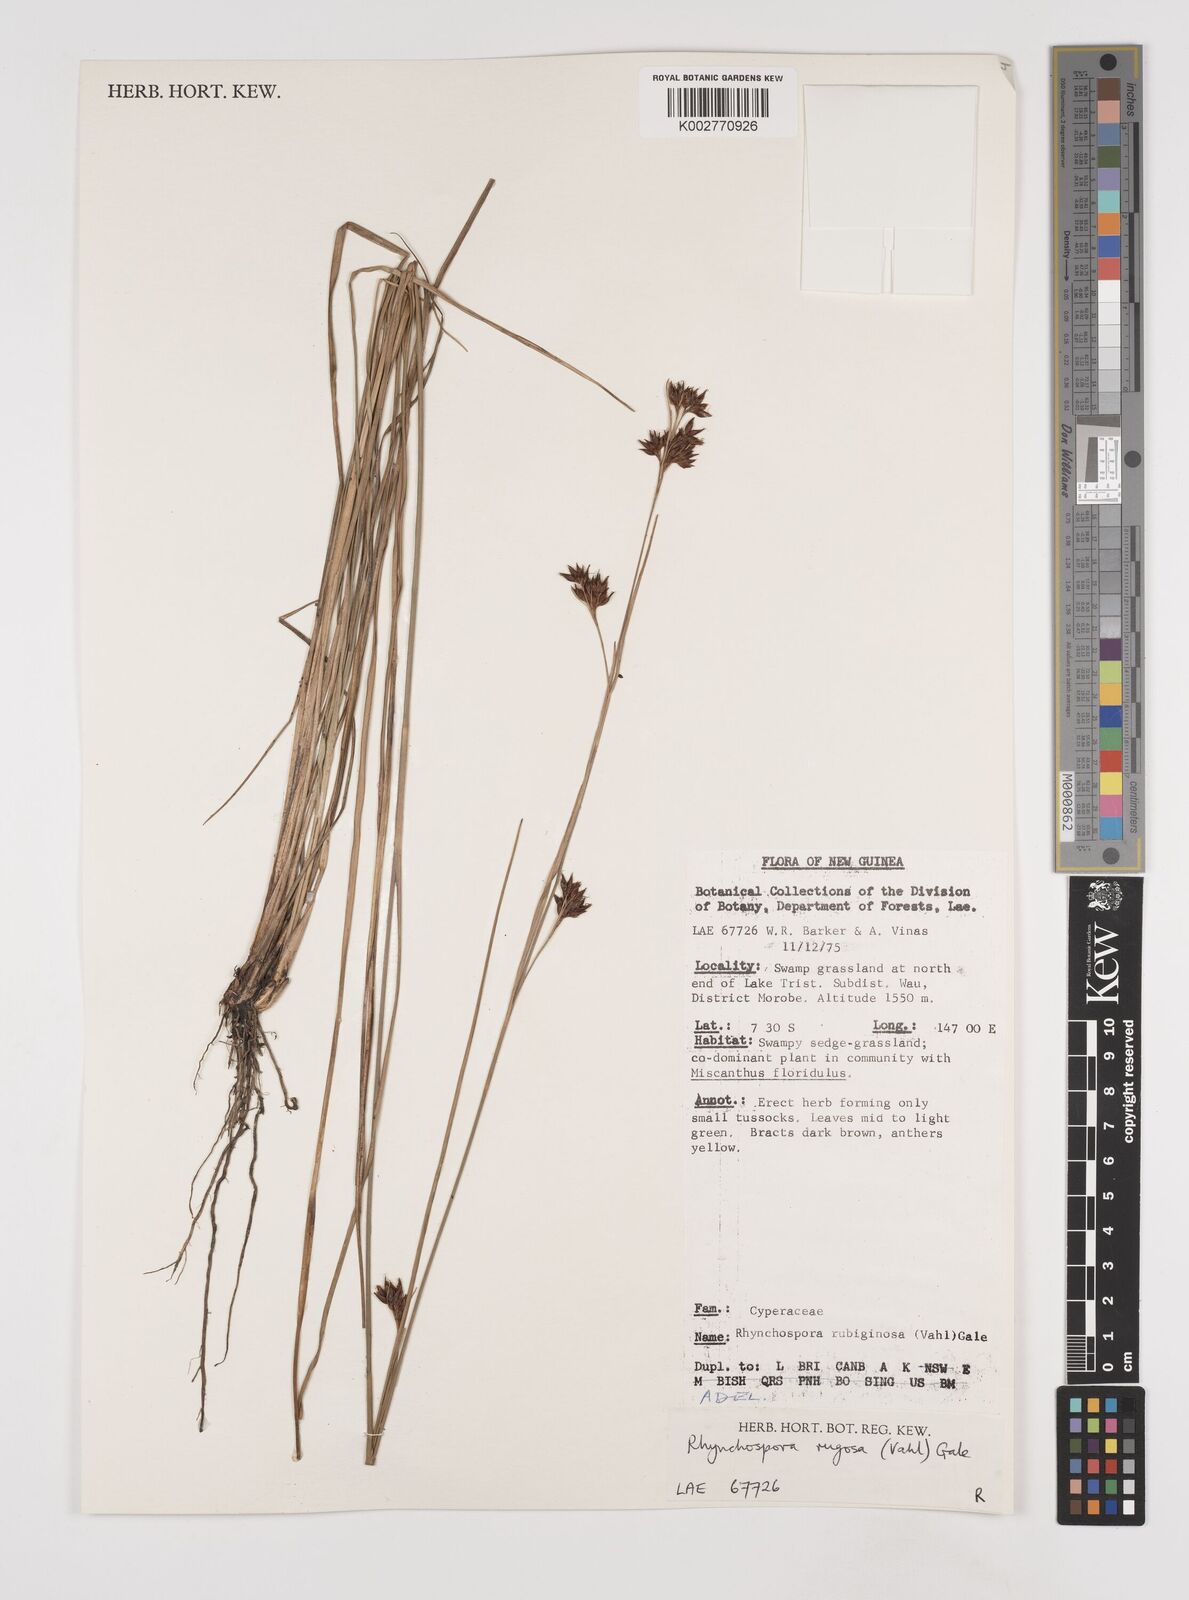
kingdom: Plantae
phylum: Tracheophyta
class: Liliopsida
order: Poales
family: Cyperaceae
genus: Rhynchospora
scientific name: Rhynchospora rugosa
